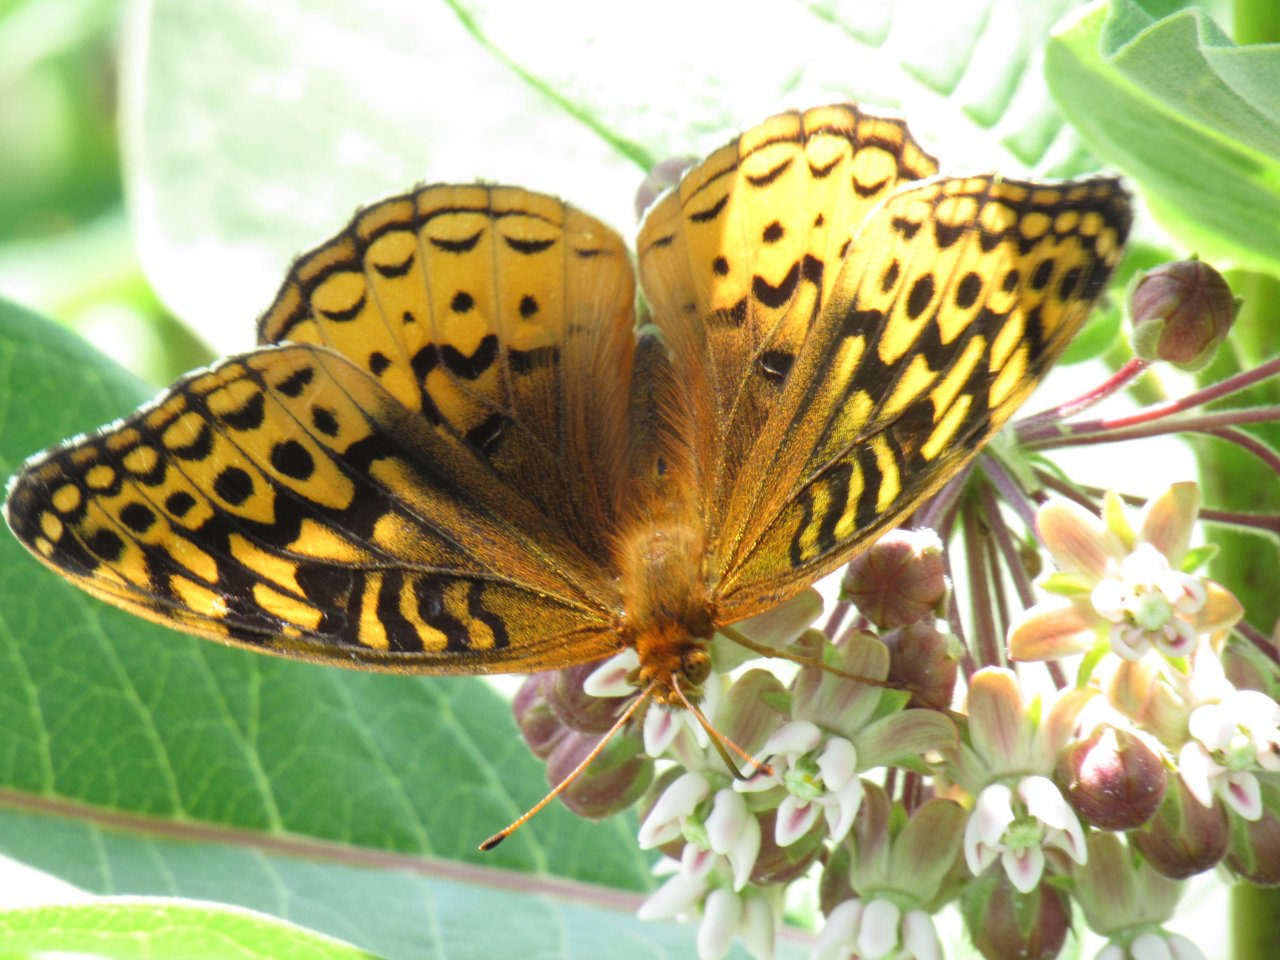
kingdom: Animalia
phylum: Arthropoda
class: Insecta
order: Lepidoptera
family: Nymphalidae
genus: Speyeria
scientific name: Speyeria cybele
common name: Great Spangled Fritillary
